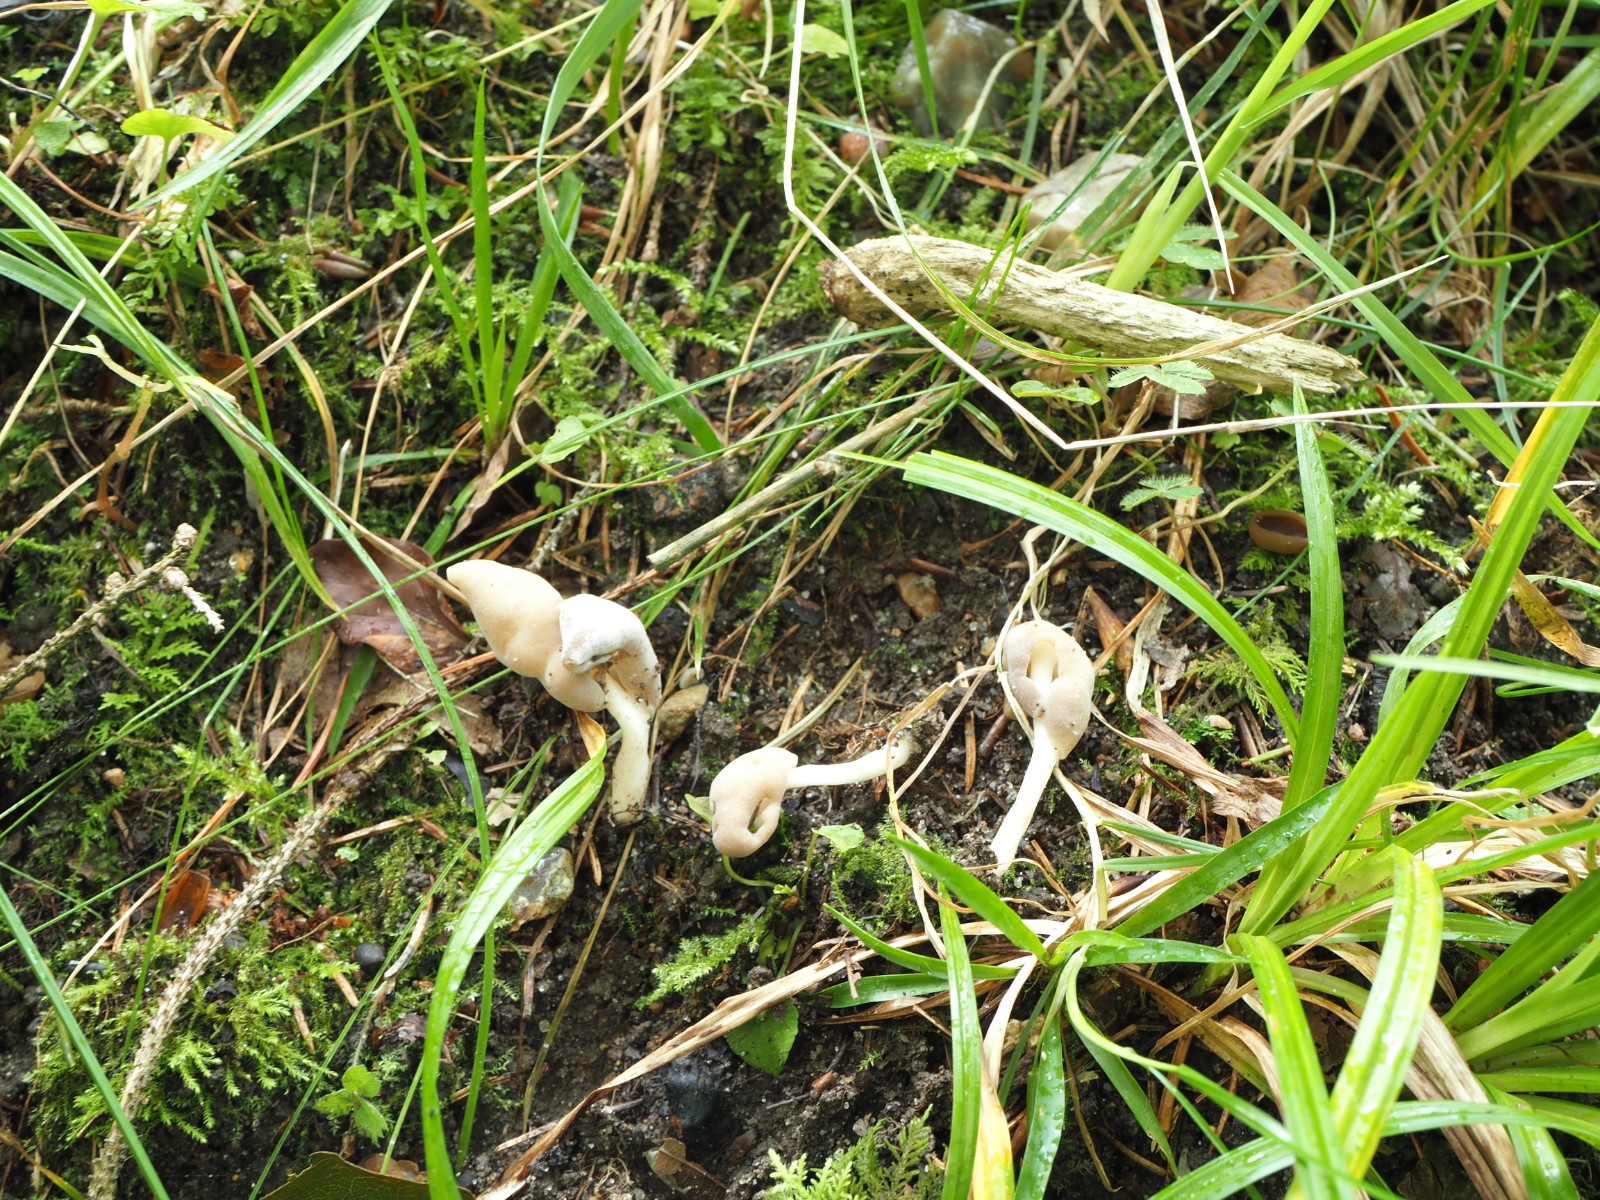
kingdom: Fungi
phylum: Ascomycota
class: Pezizomycetes
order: Pezizales
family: Helvellaceae
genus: Helvella
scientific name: Helvella elastica
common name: elastik-foldhat
